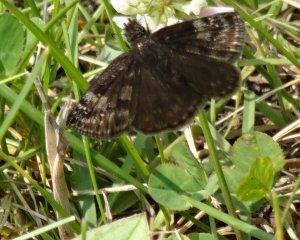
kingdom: Animalia
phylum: Arthropoda
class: Insecta
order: Lepidoptera
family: Hesperiidae
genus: Gesta
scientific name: Gesta
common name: Wild Indigo Duskywing
